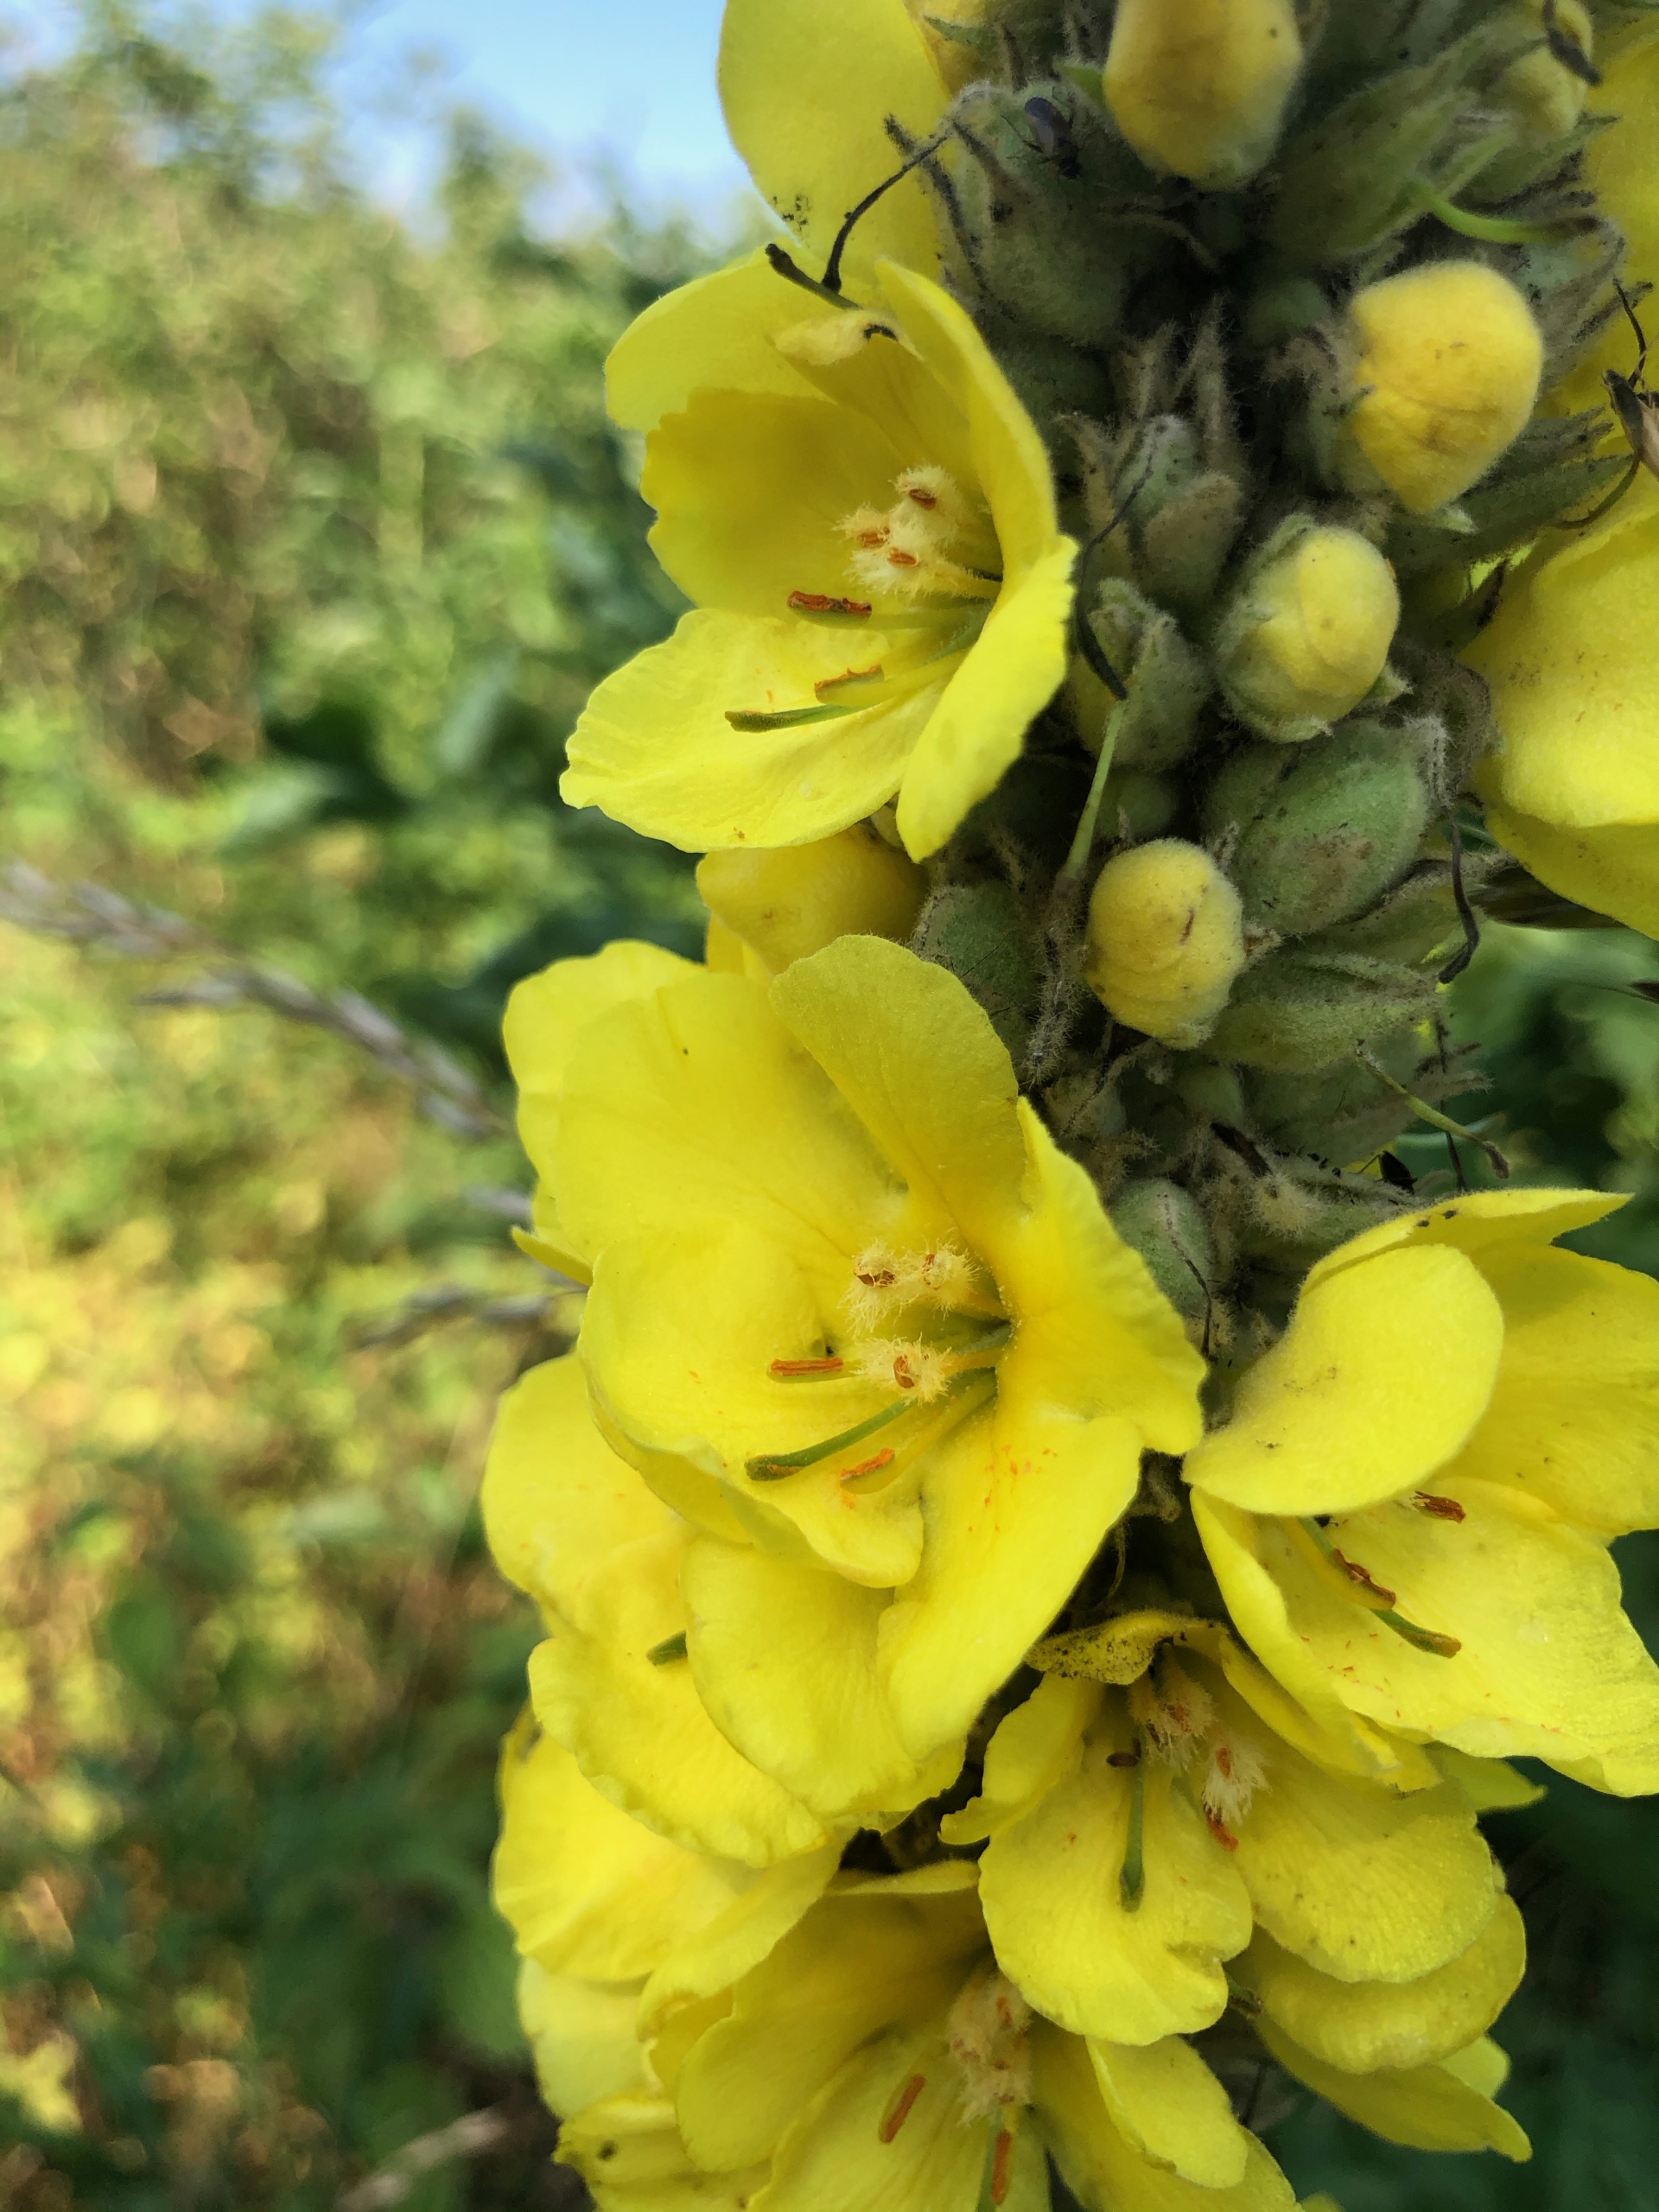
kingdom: Plantae
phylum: Tracheophyta
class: Magnoliopsida
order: Lamiales
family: Scrophulariaceae
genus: Verbascum
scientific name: Verbascum densiflorum
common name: Uldbladet kongelys
